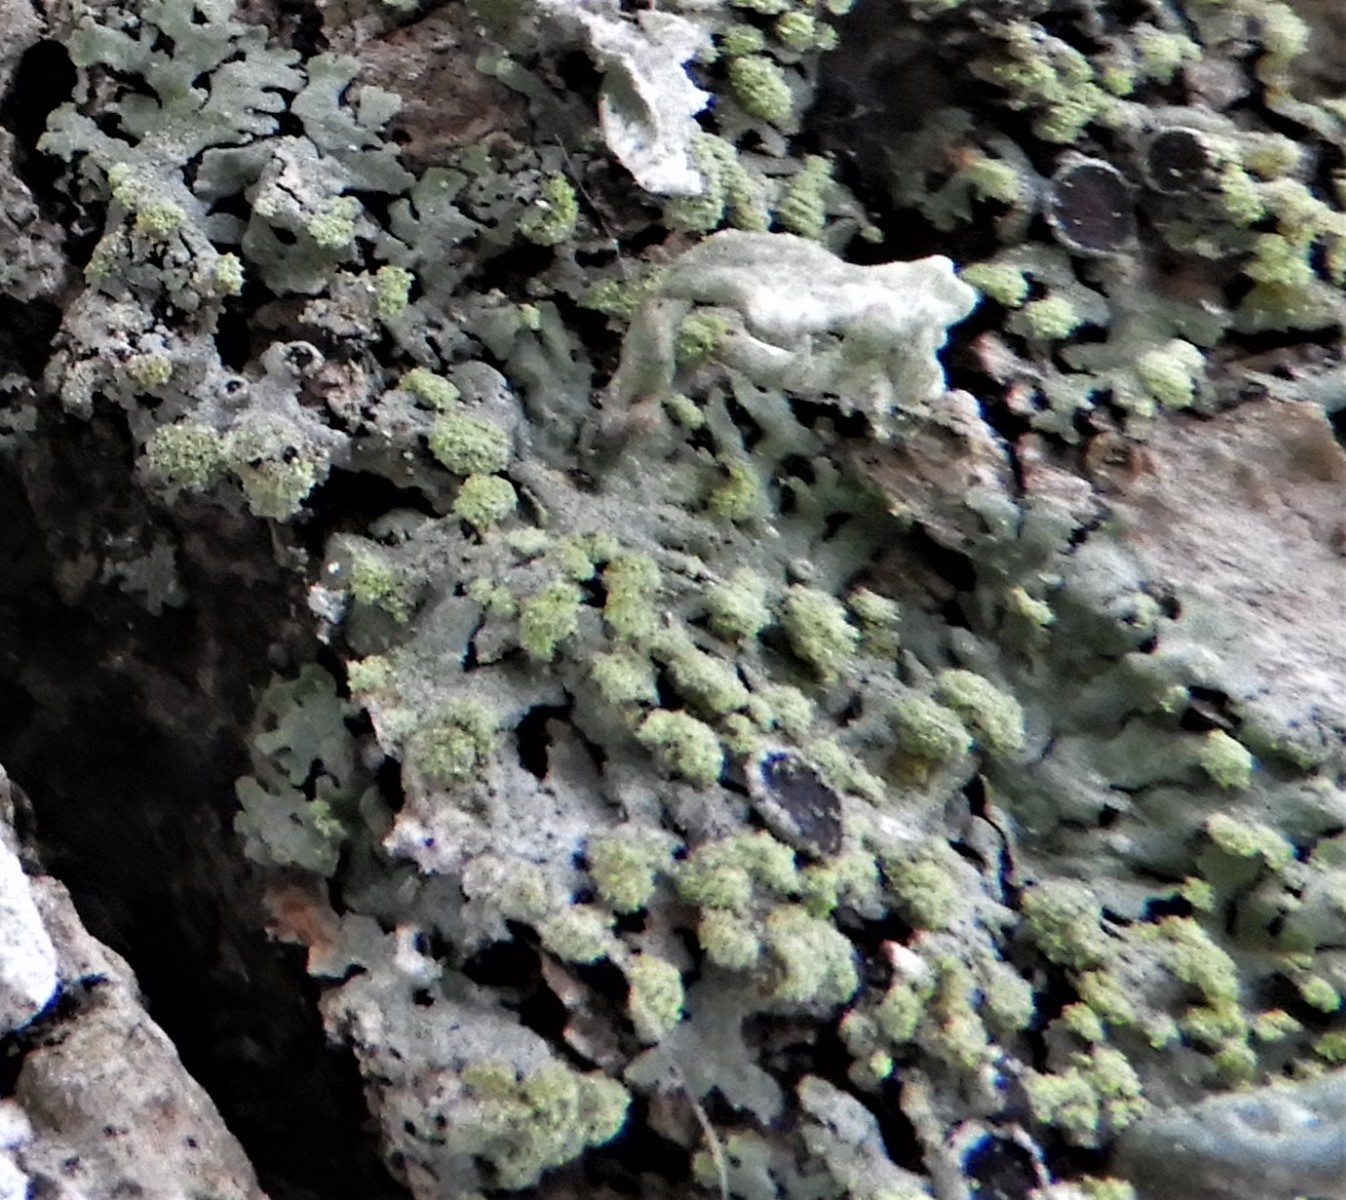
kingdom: Fungi
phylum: Ascomycota
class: Lecanoromycetes
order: Caliciales
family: Physciaceae
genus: Phaeophyscia
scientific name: Phaeophyscia orbicularis
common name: grågrøn rosetlav
